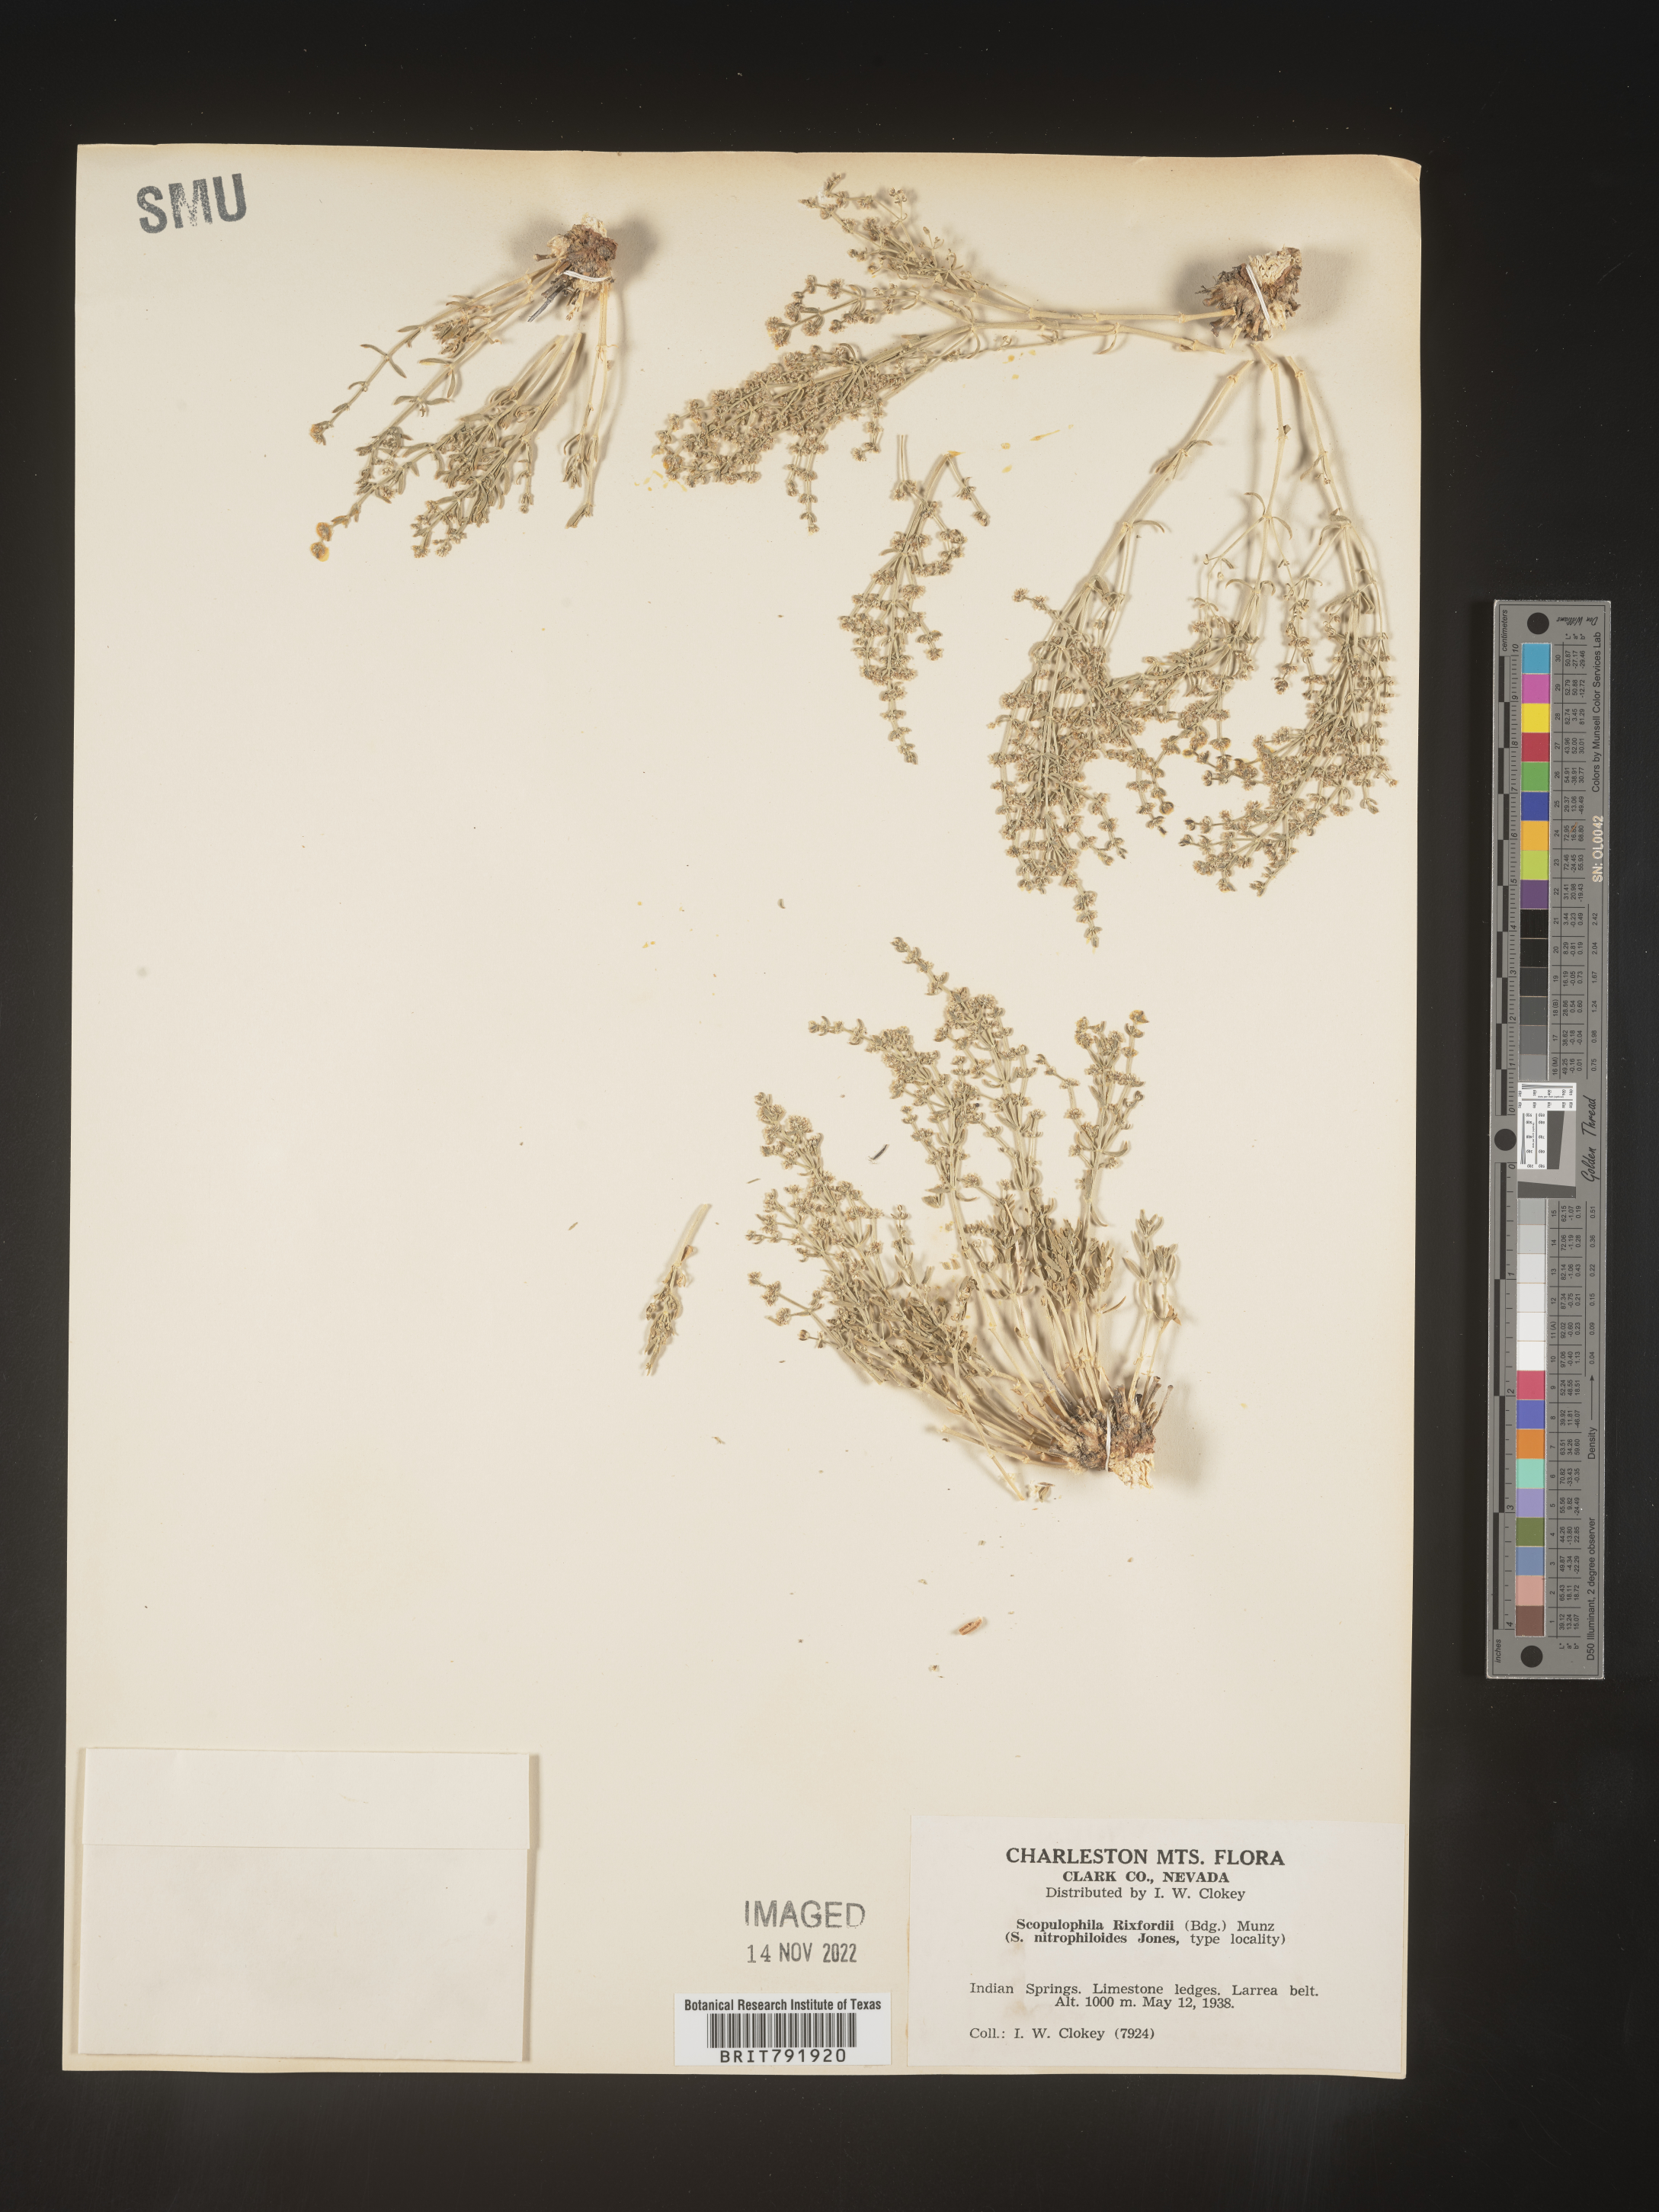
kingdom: Plantae
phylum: Tracheophyta
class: Magnoliopsida
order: Caryophyllales
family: Caryophyllaceae
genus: Scopulophila
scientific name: Scopulophila
